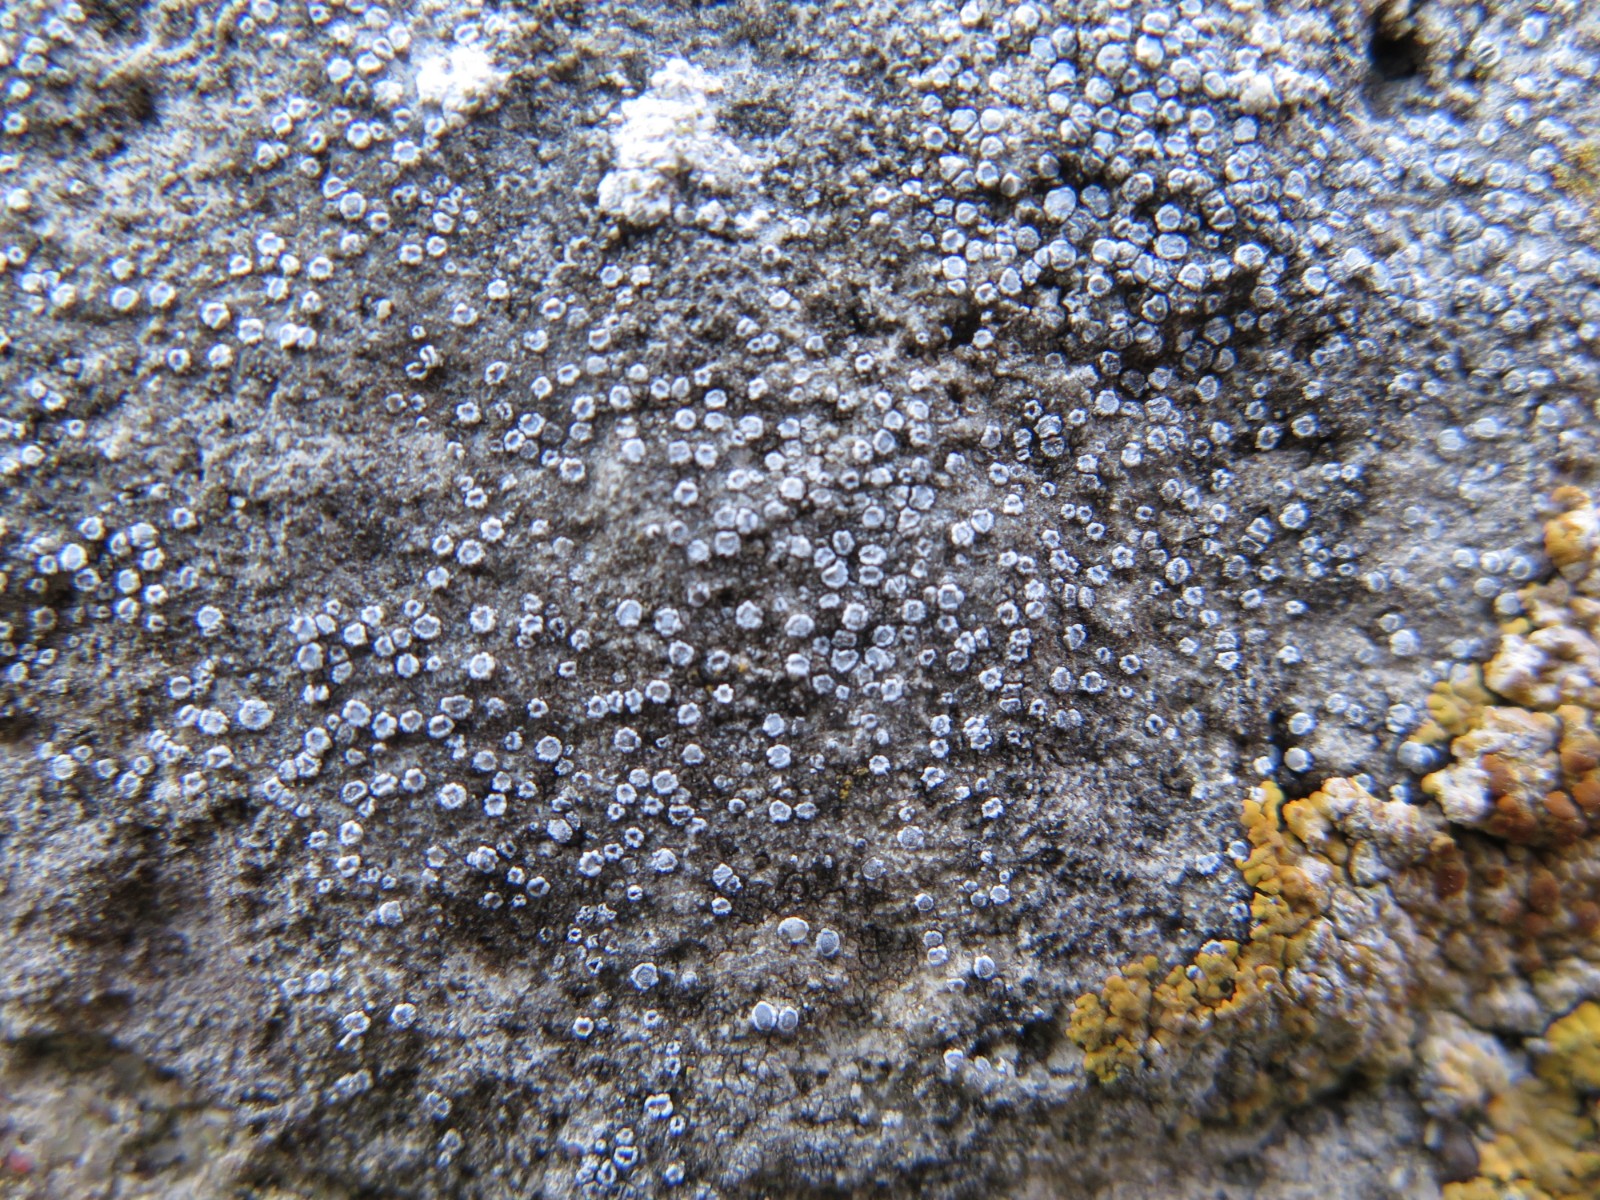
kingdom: Fungi
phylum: Ascomycota
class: Lecanoromycetes
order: Lecanorales
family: Lecanoraceae
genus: Myriolecis
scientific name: Myriolecis crenulata
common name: beton-kantskivelav
